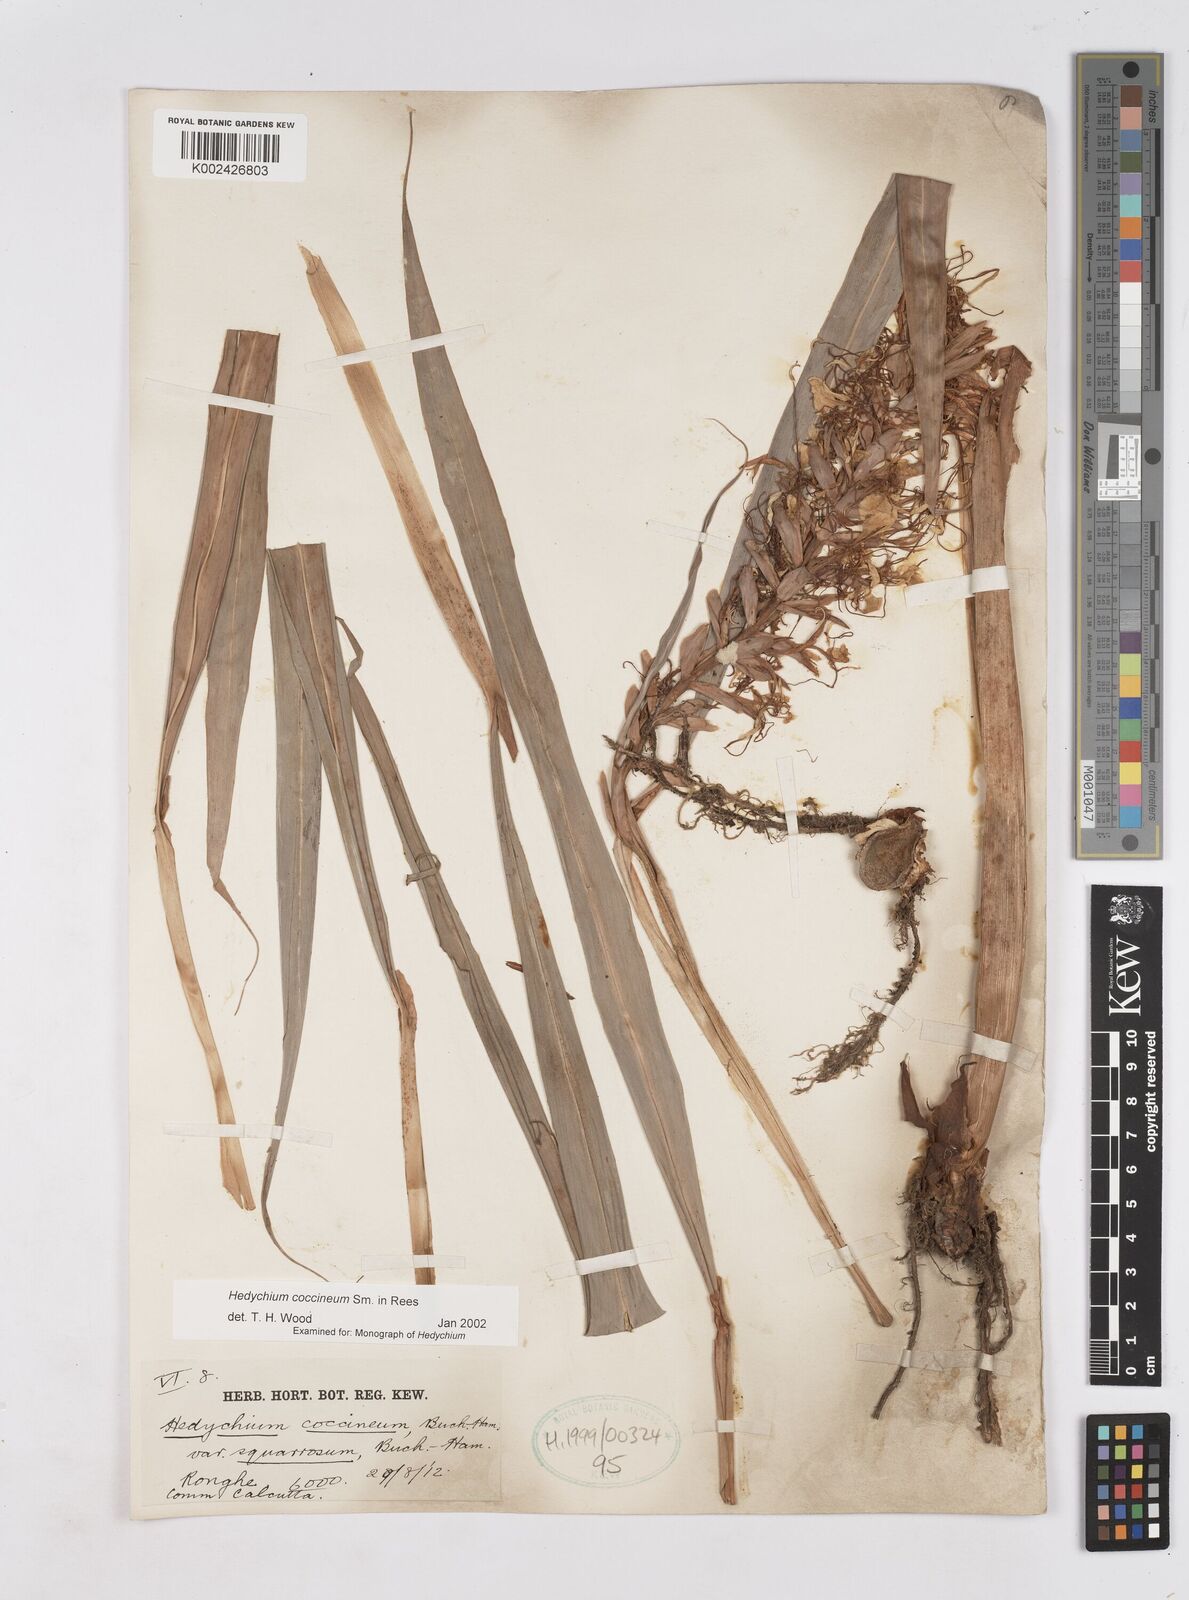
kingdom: Plantae
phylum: Tracheophyta
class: Liliopsida
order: Zingiberales
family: Zingiberaceae
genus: Hedychium
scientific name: Hedychium coccineum
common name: Red ginger-lily
